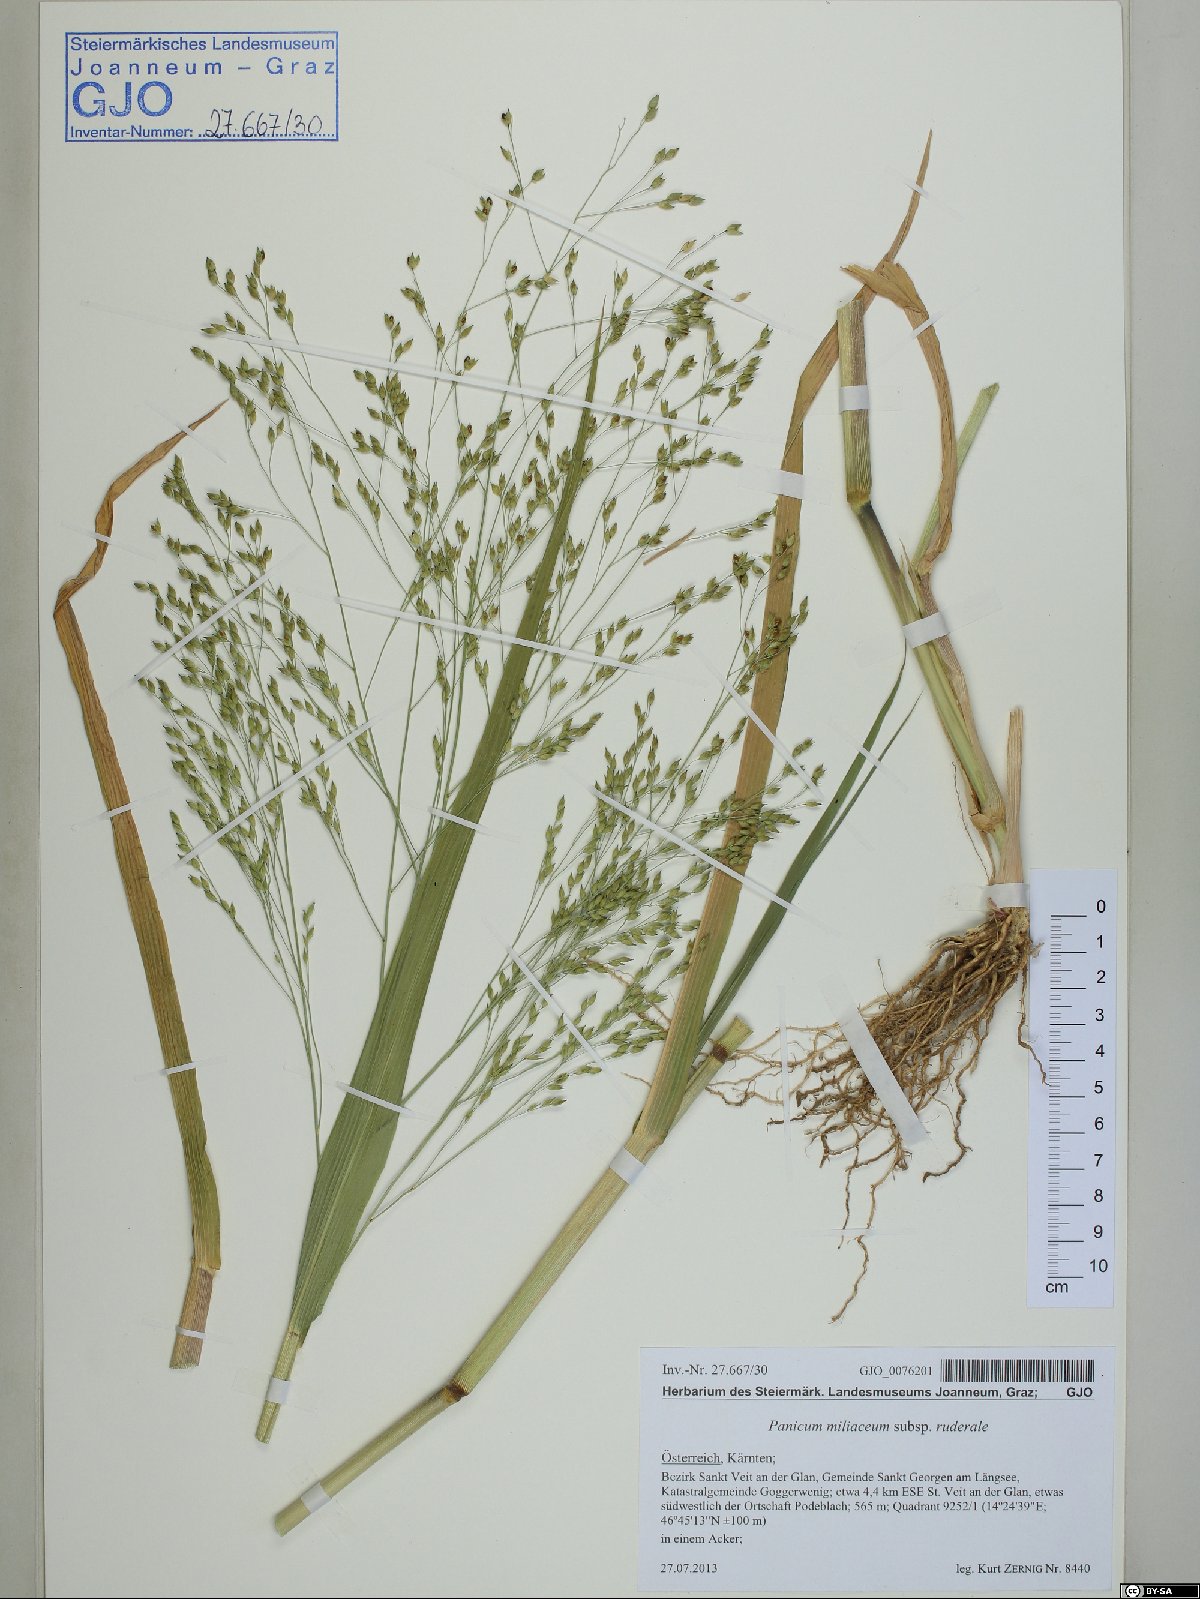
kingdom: Plantae
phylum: Tracheophyta
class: Liliopsida
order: Poales
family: Poaceae
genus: Panicum
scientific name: Panicum miliaceum
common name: Common millet
